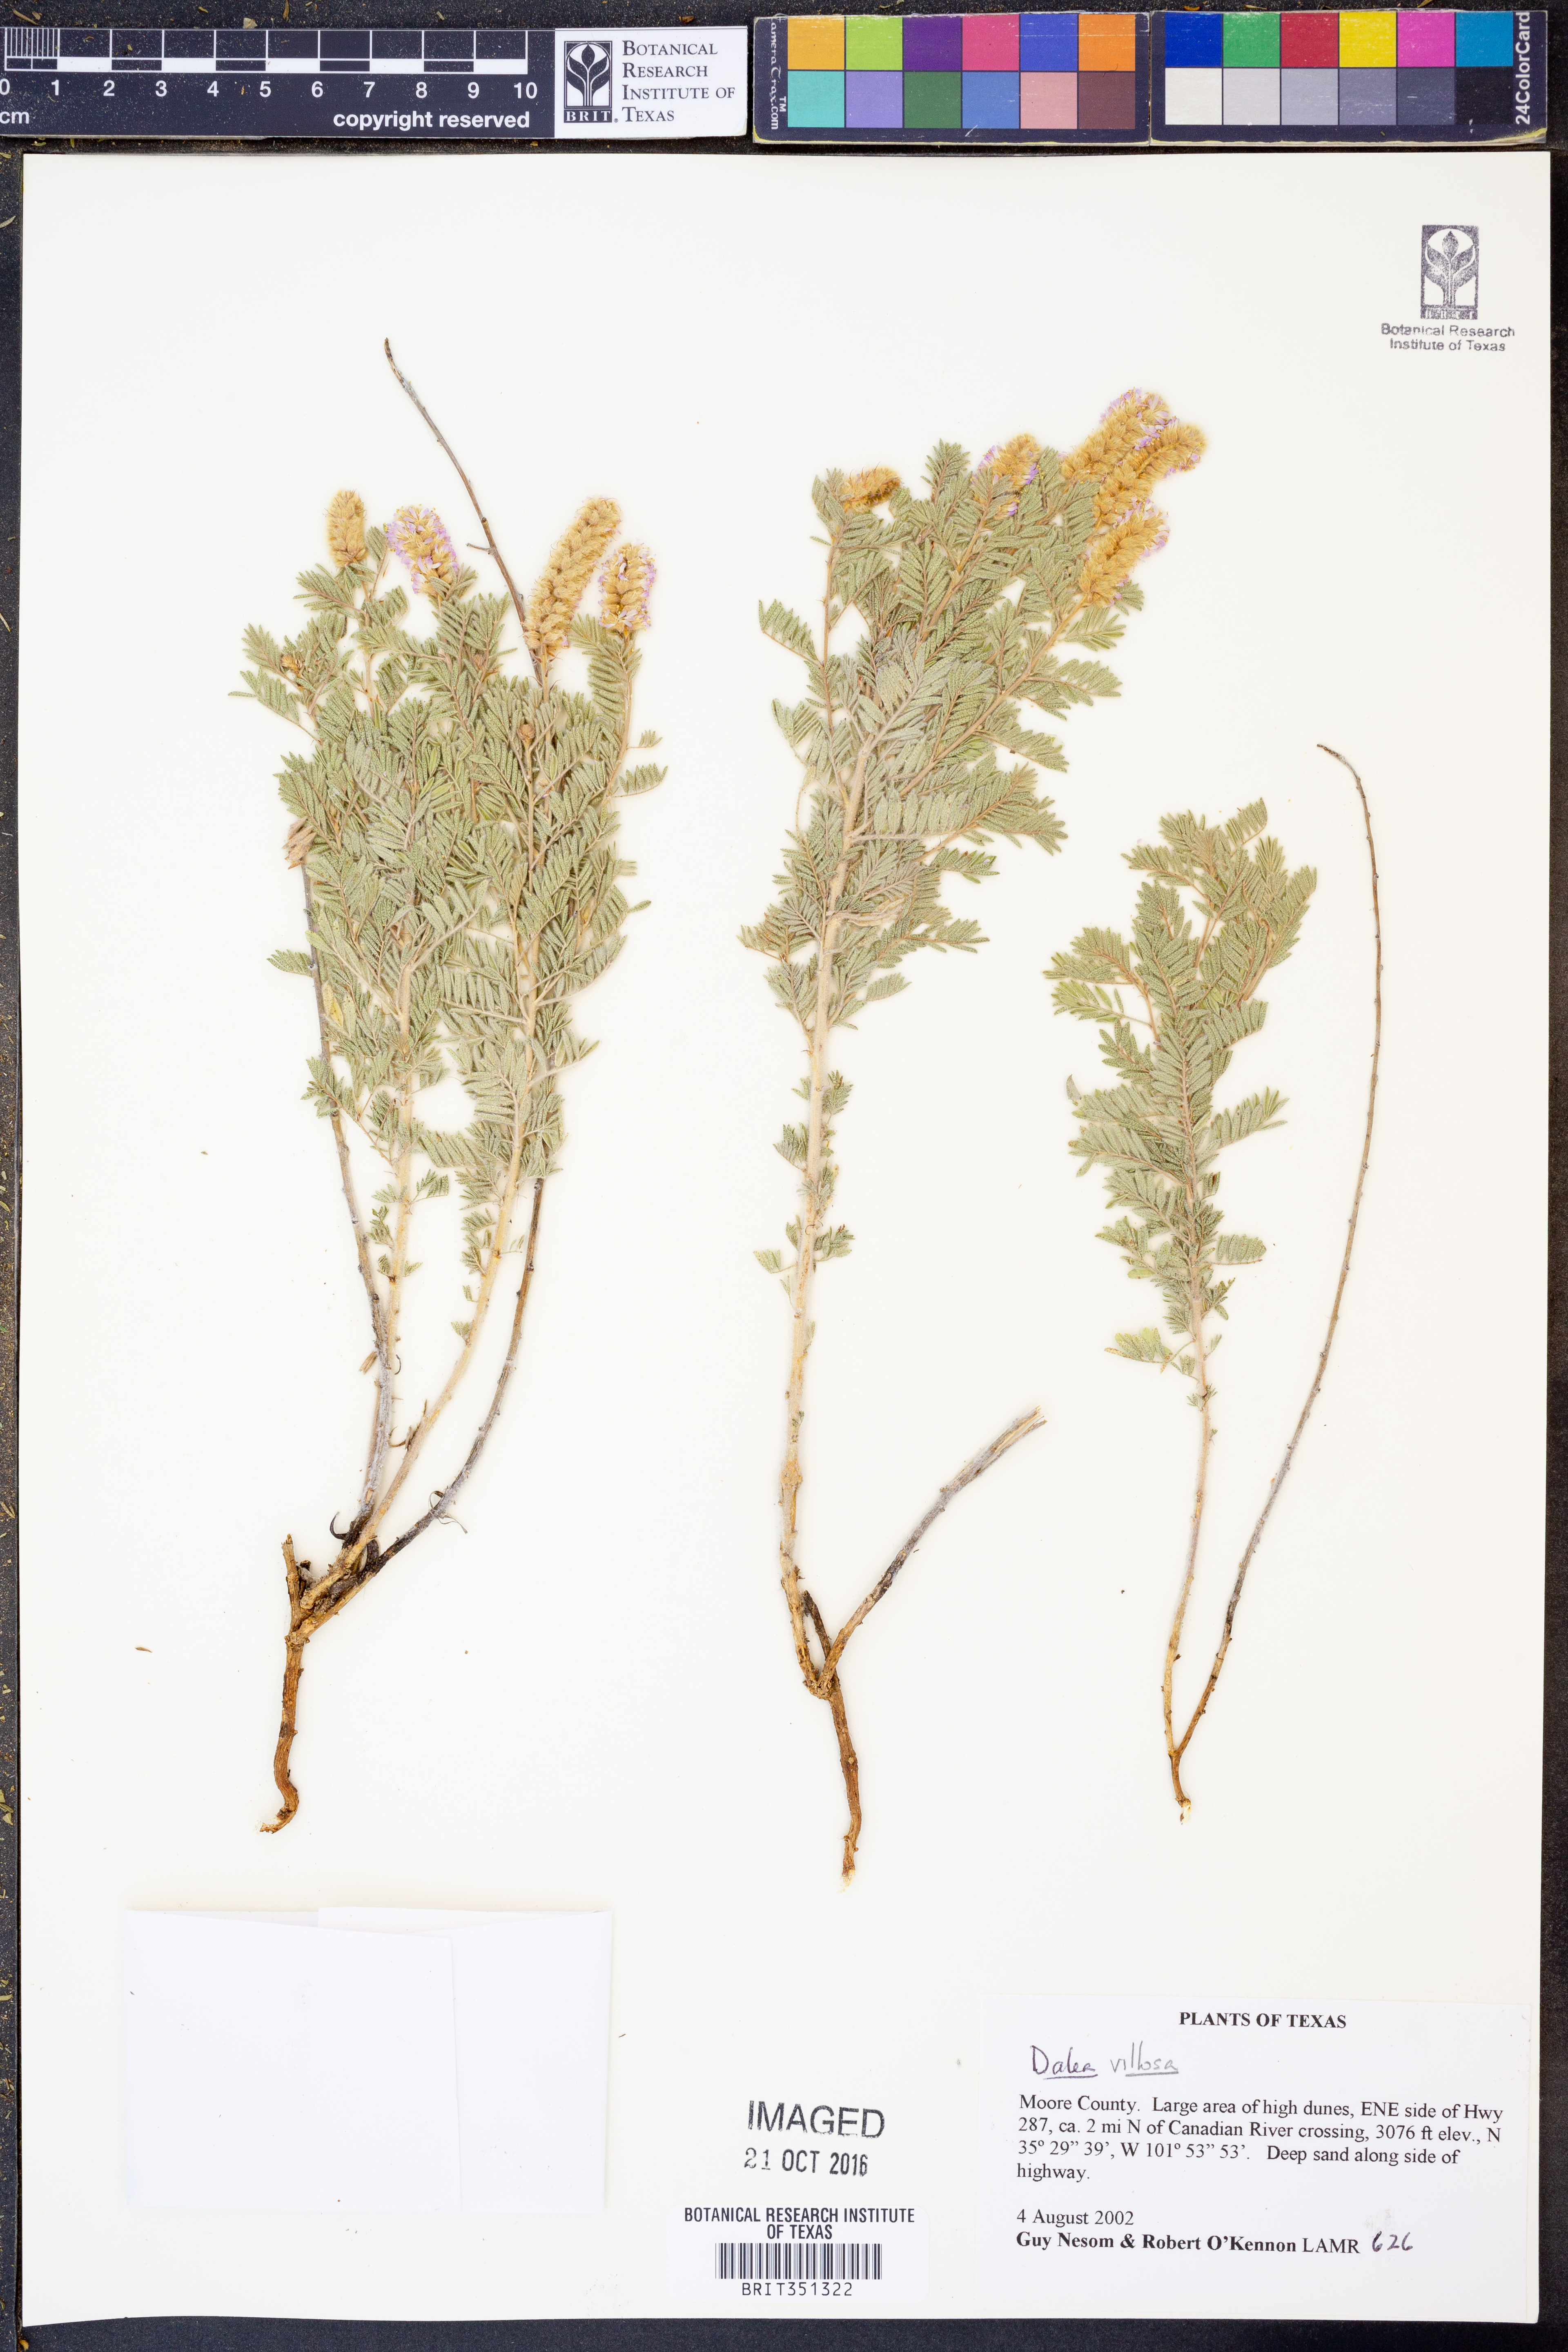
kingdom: Plantae
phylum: Tracheophyta
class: Magnoliopsida
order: Fabales
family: Fabaceae
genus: Dalea
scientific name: Dalea villosa
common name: Silky prairie-clover
